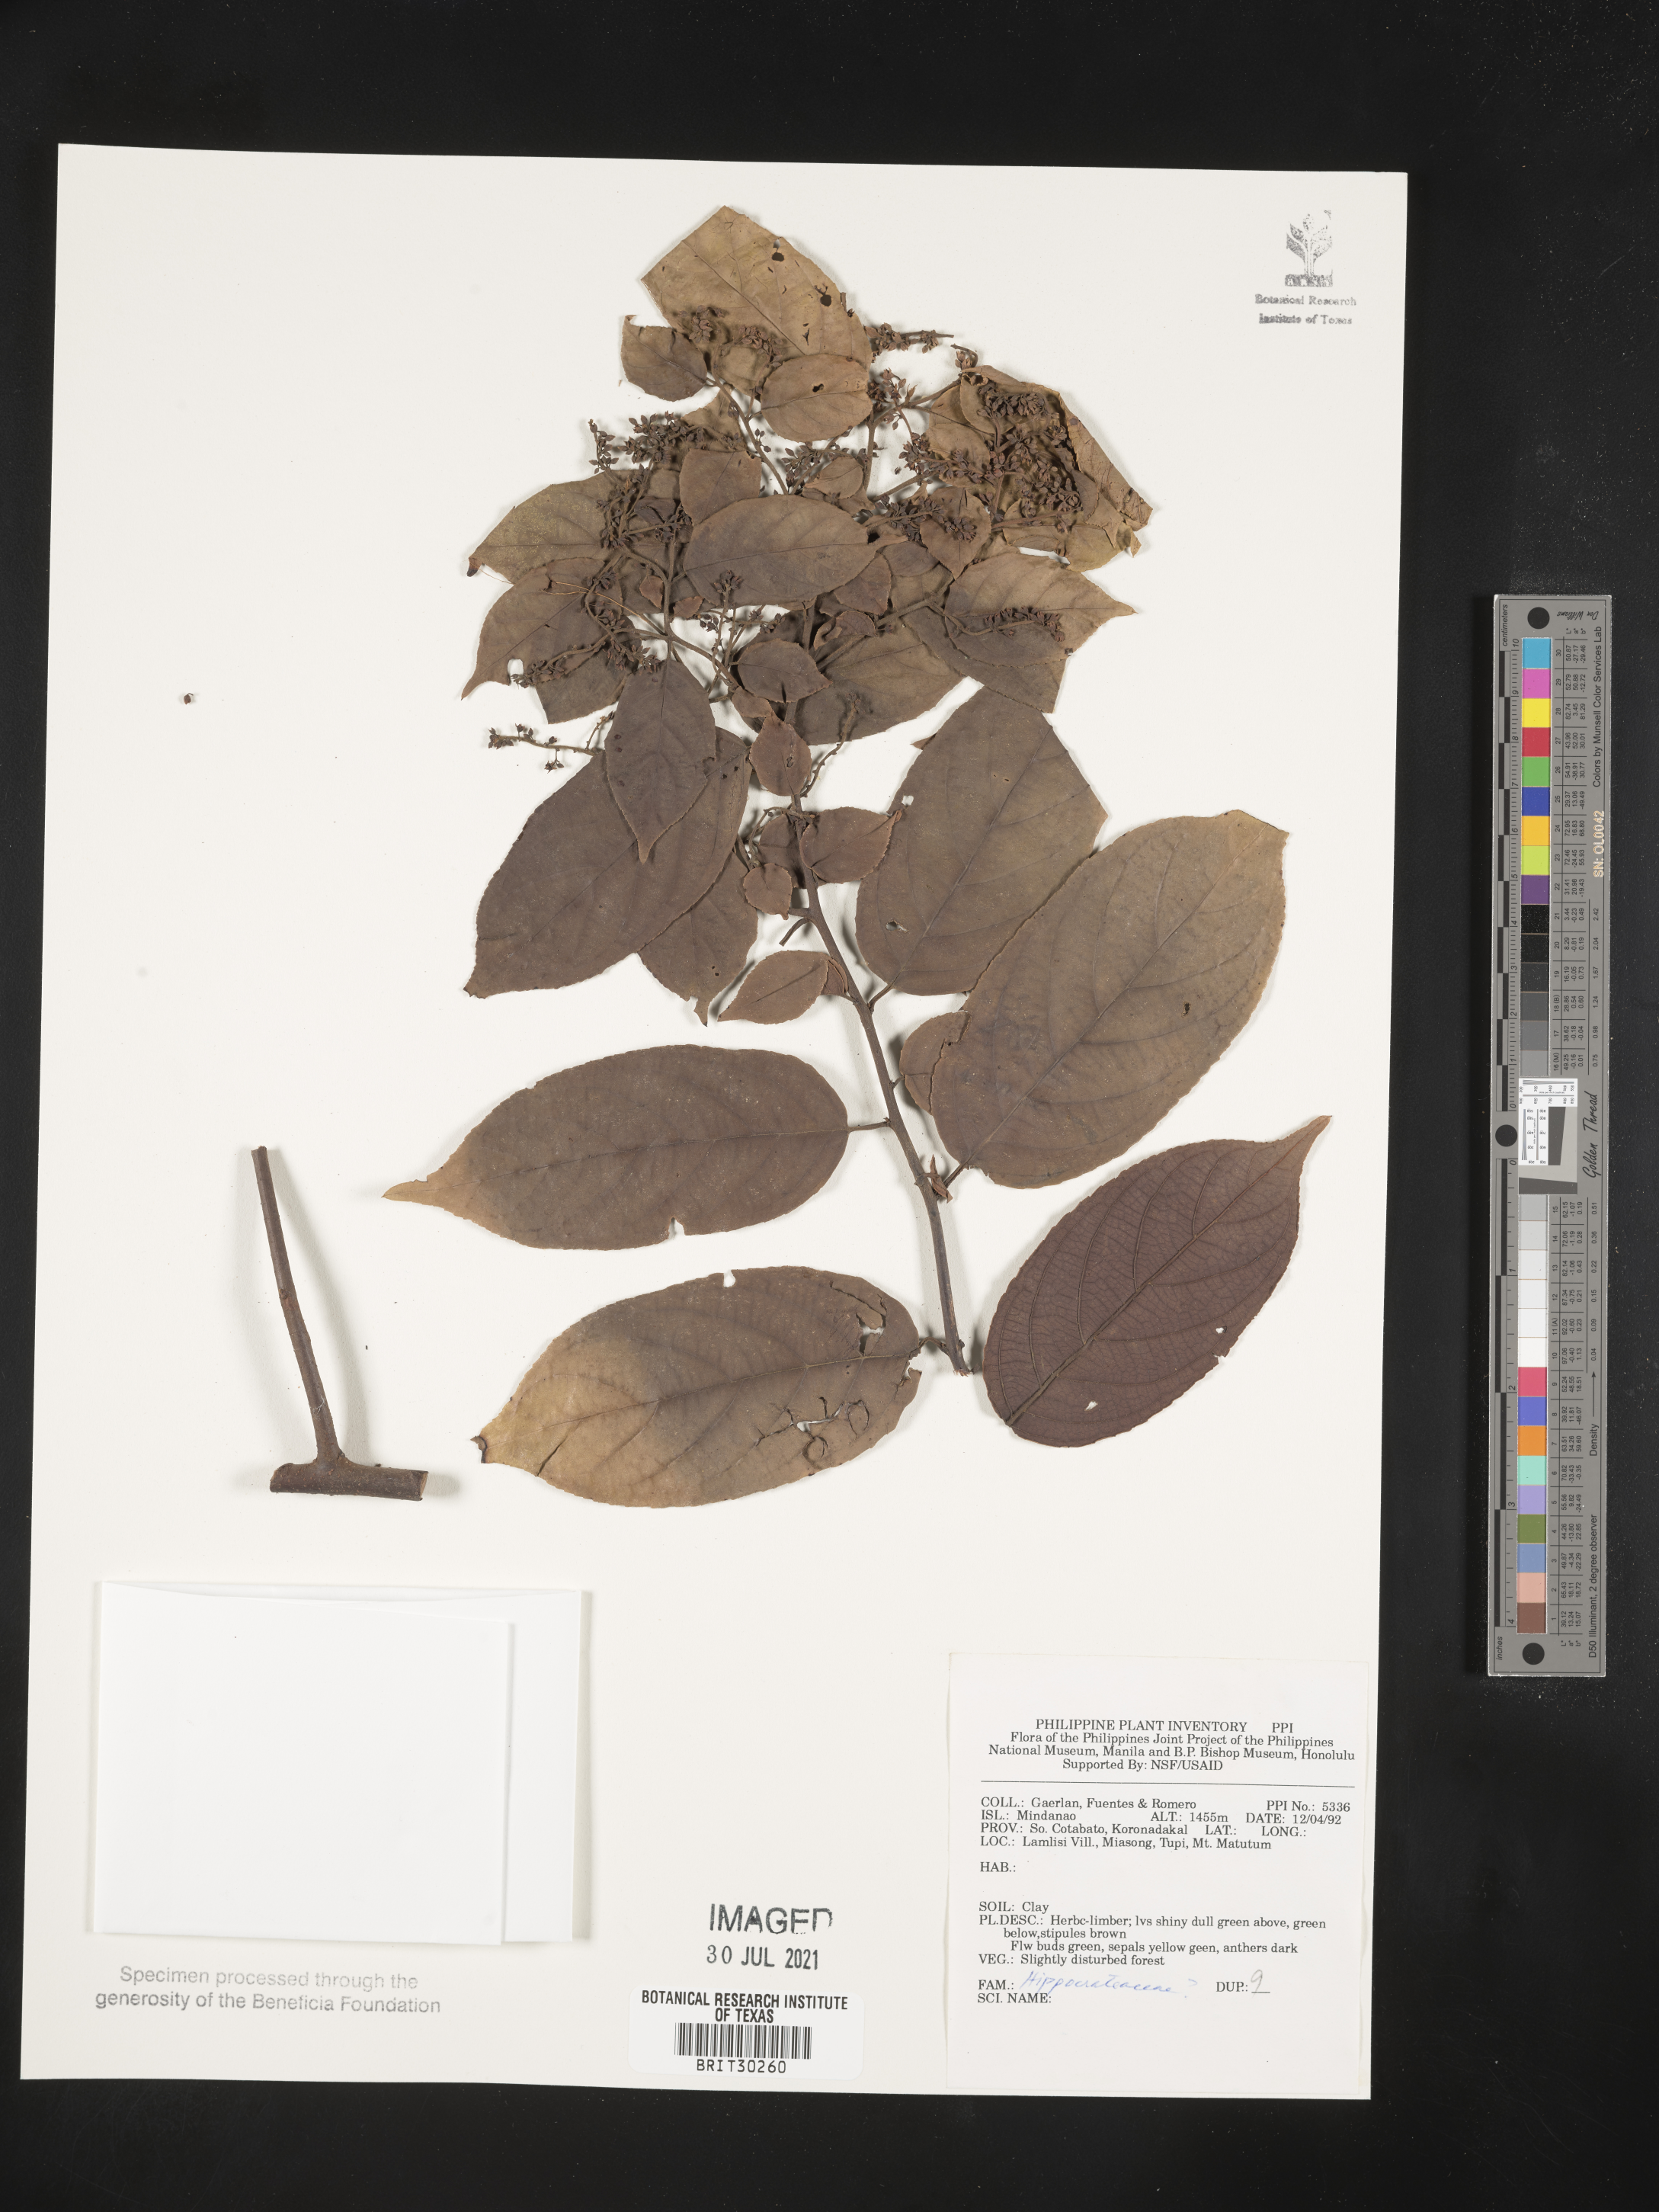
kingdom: Plantae
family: Hippocrateaceae
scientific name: Hippocrateaceae
